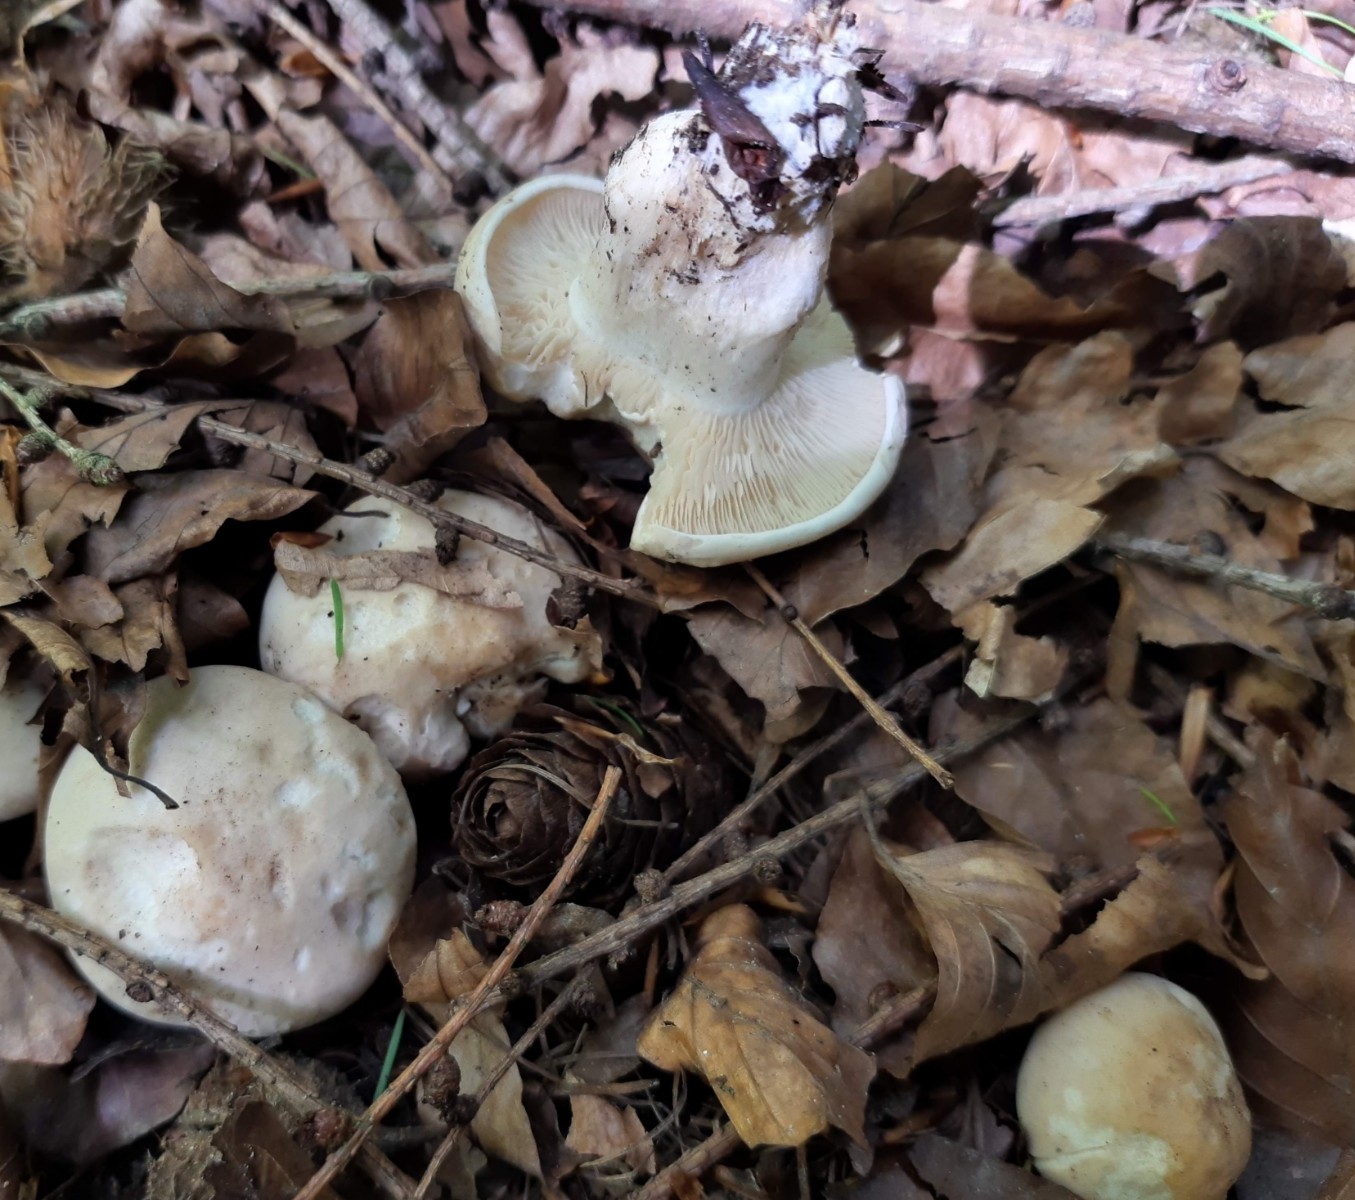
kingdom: Fungi
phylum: Basidiomycota
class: Agaricomycetes
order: Agaricales
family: Lyophyllaceae
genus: Calocybe
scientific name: Calocybe gambosa
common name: vårmusseron
